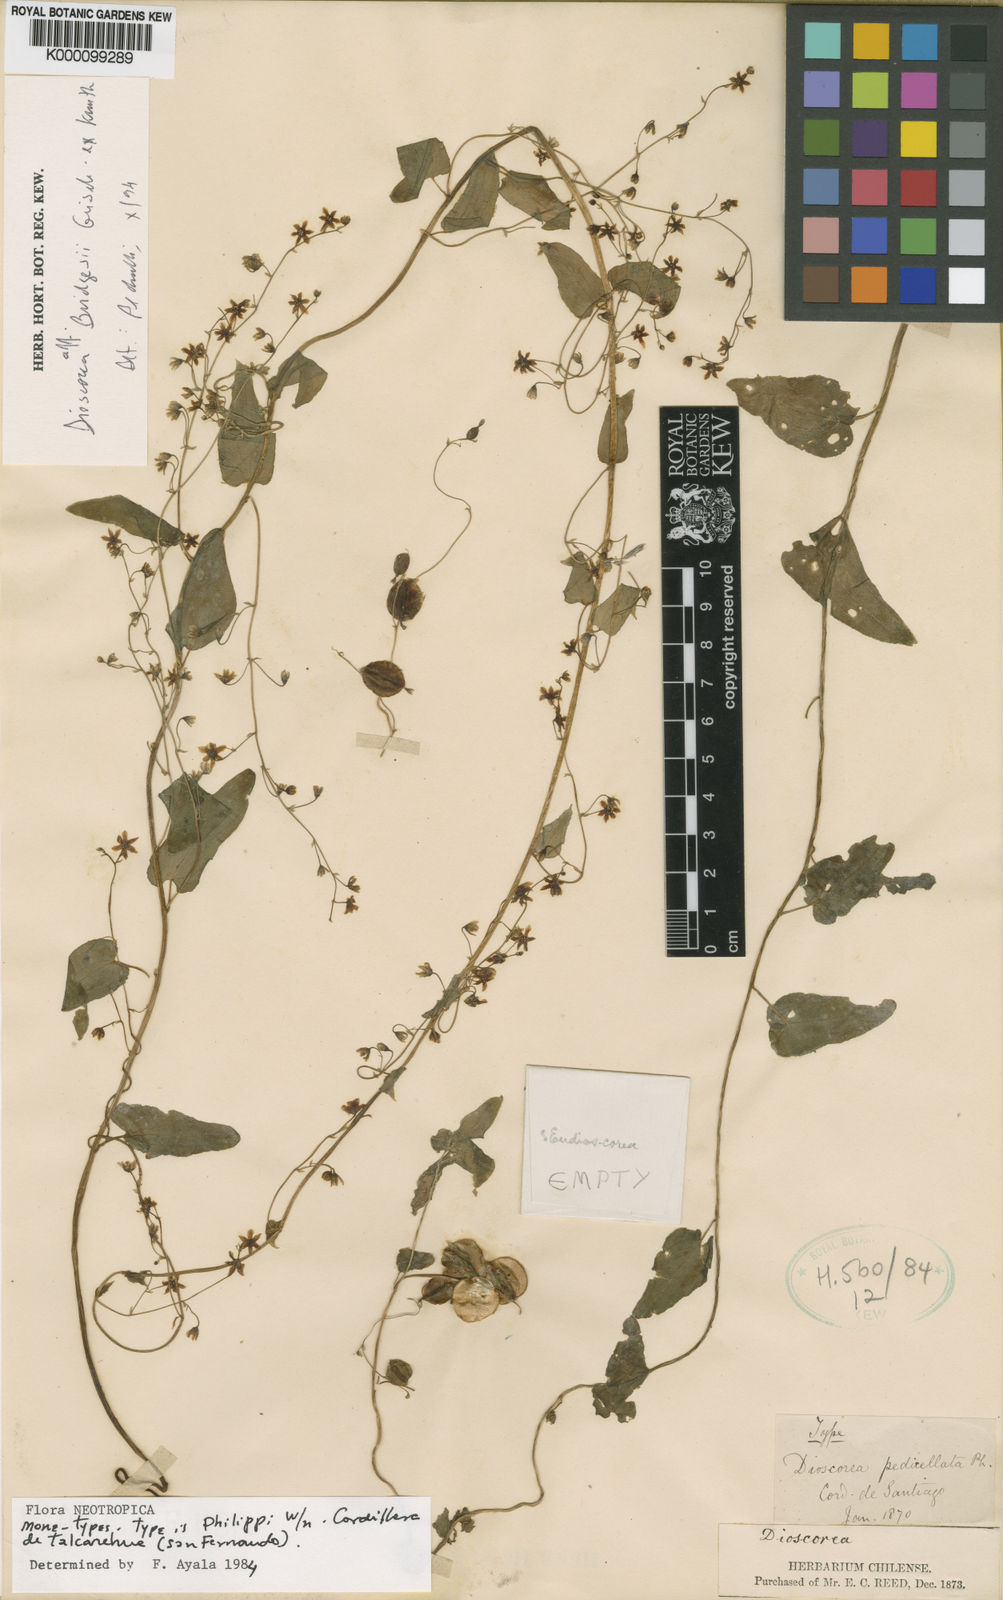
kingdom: Plantae
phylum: Tracheophyta
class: Liliopsida
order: Dioscoreales
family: Dioscoreaceae
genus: Dioscorea
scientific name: Dioscorea pedicellata
